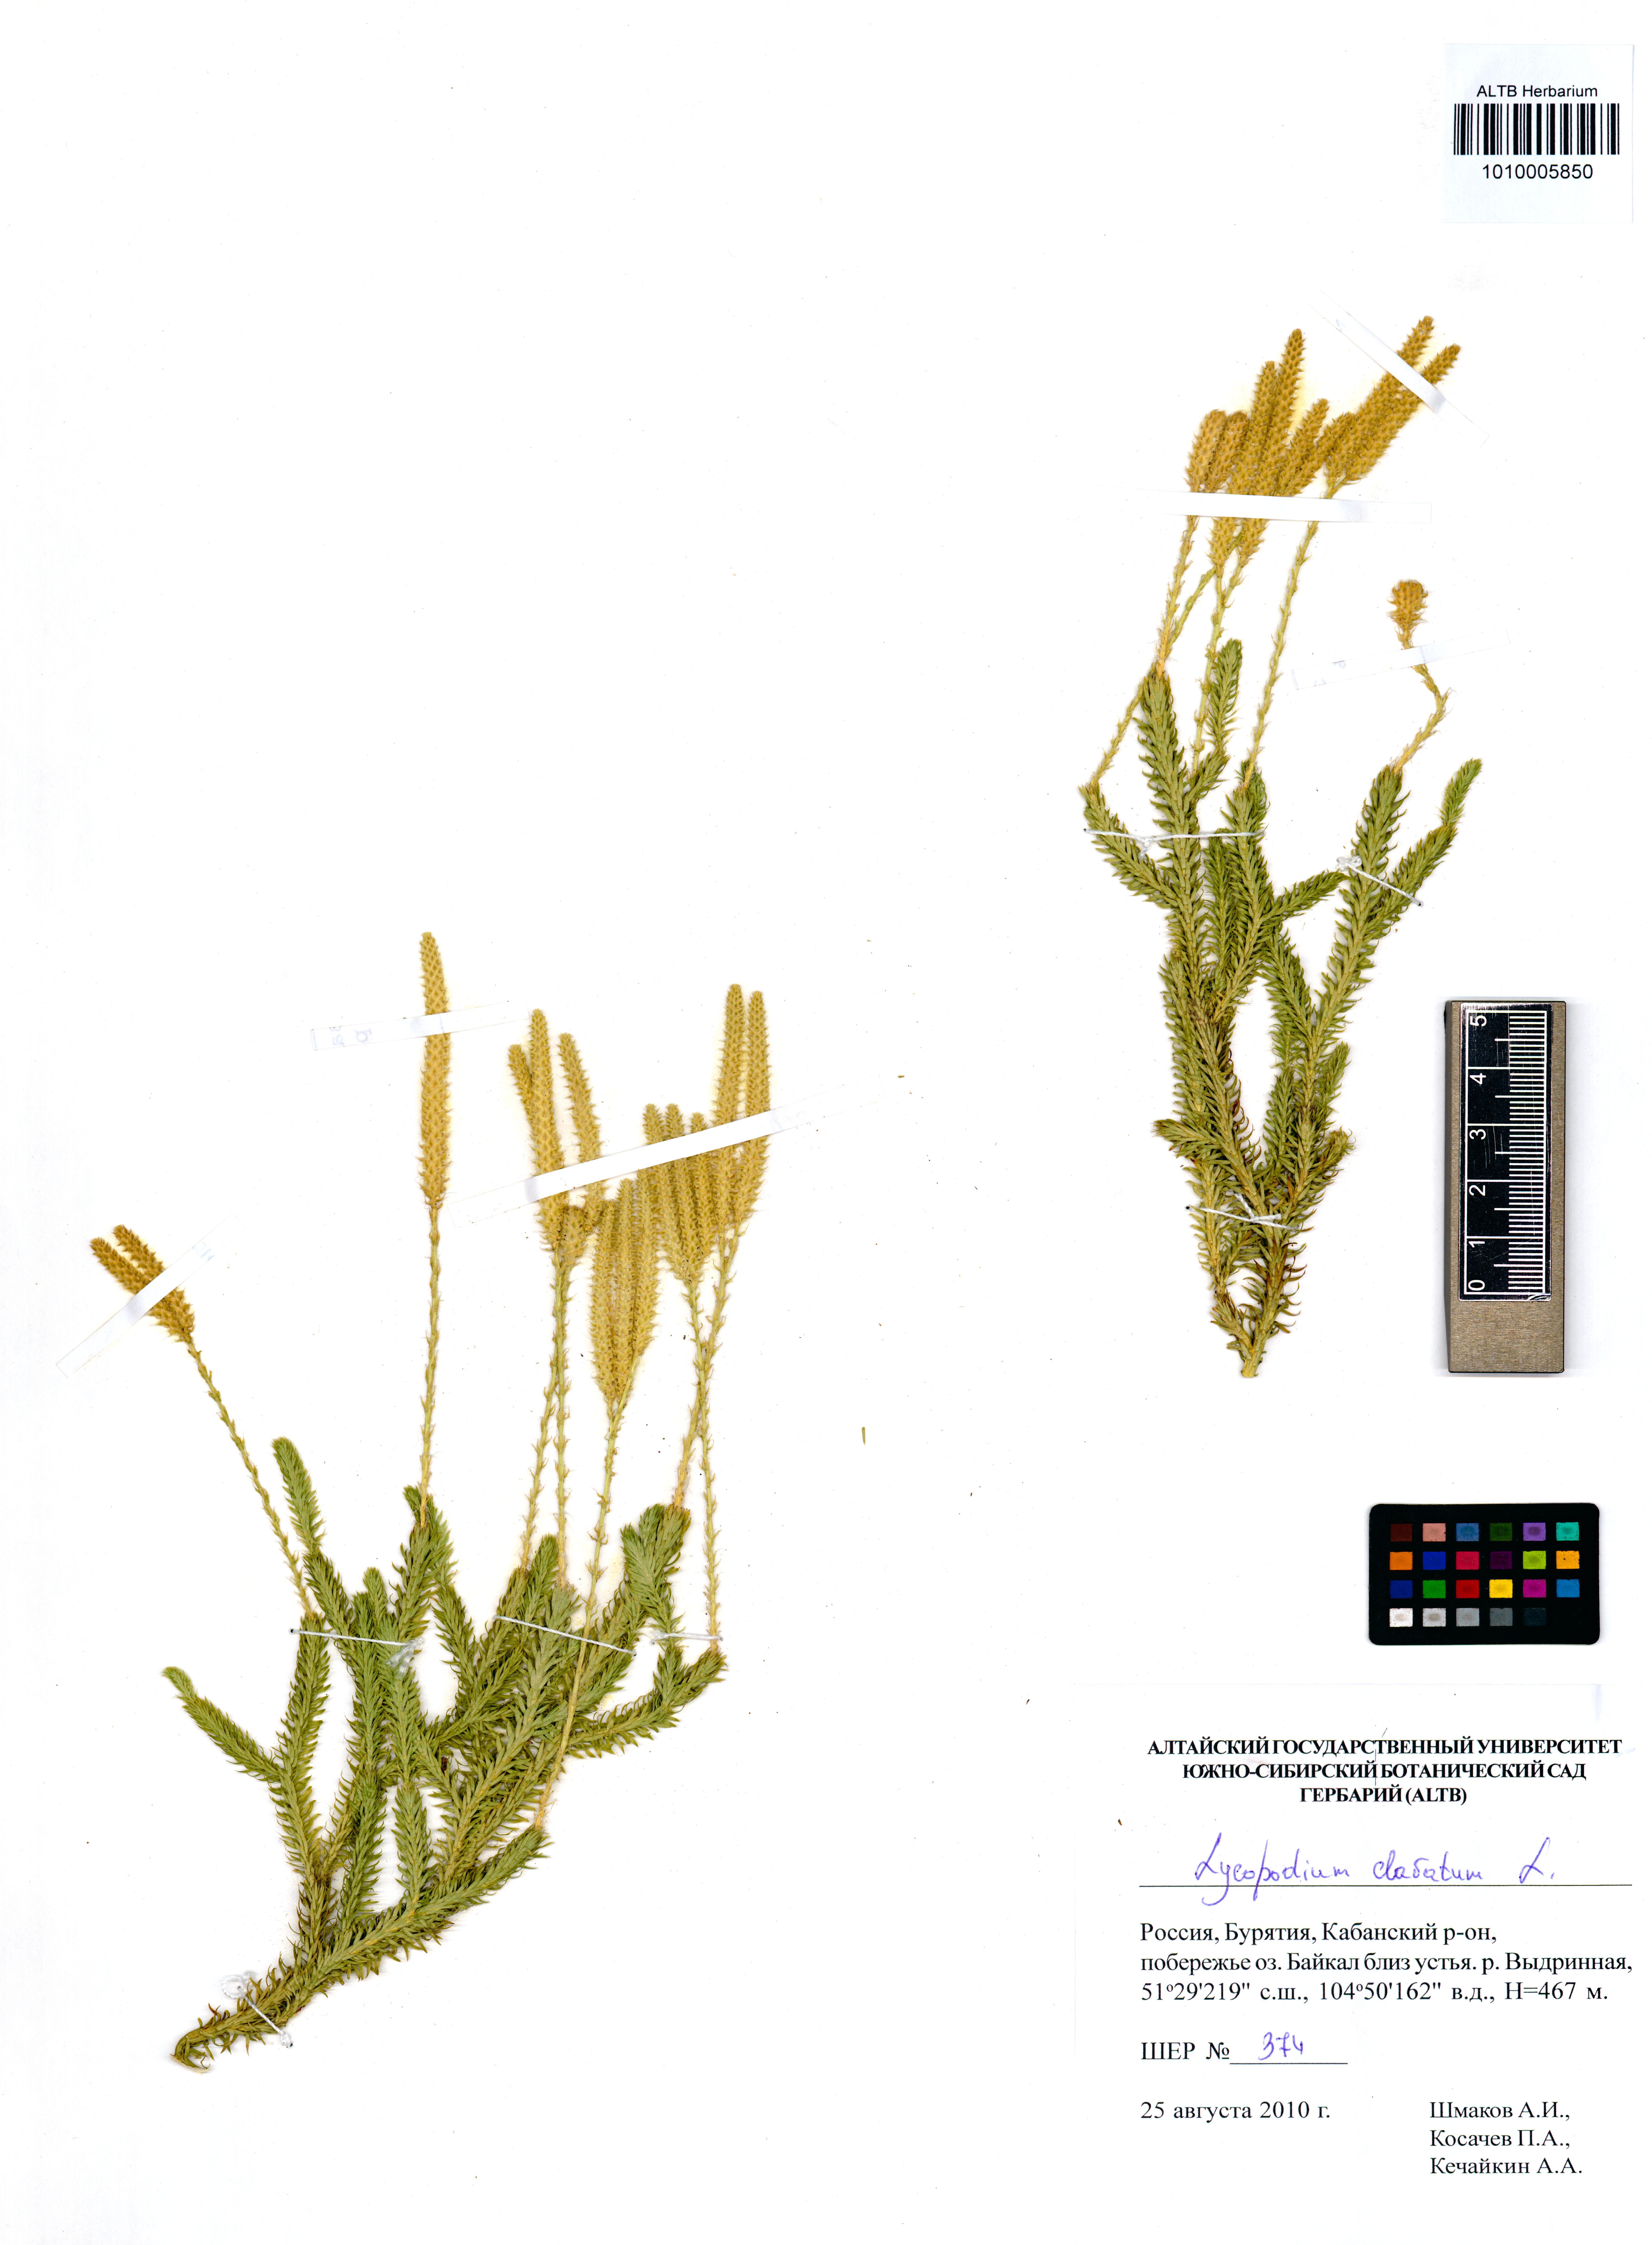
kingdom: Plantae
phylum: Tracheophyta
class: Lycopodiopsida
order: Lycopodiales
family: Lycopodiaceae
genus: Lycopodium
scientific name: Lycopodium clavatum
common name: Stag's-horn clubmoss
